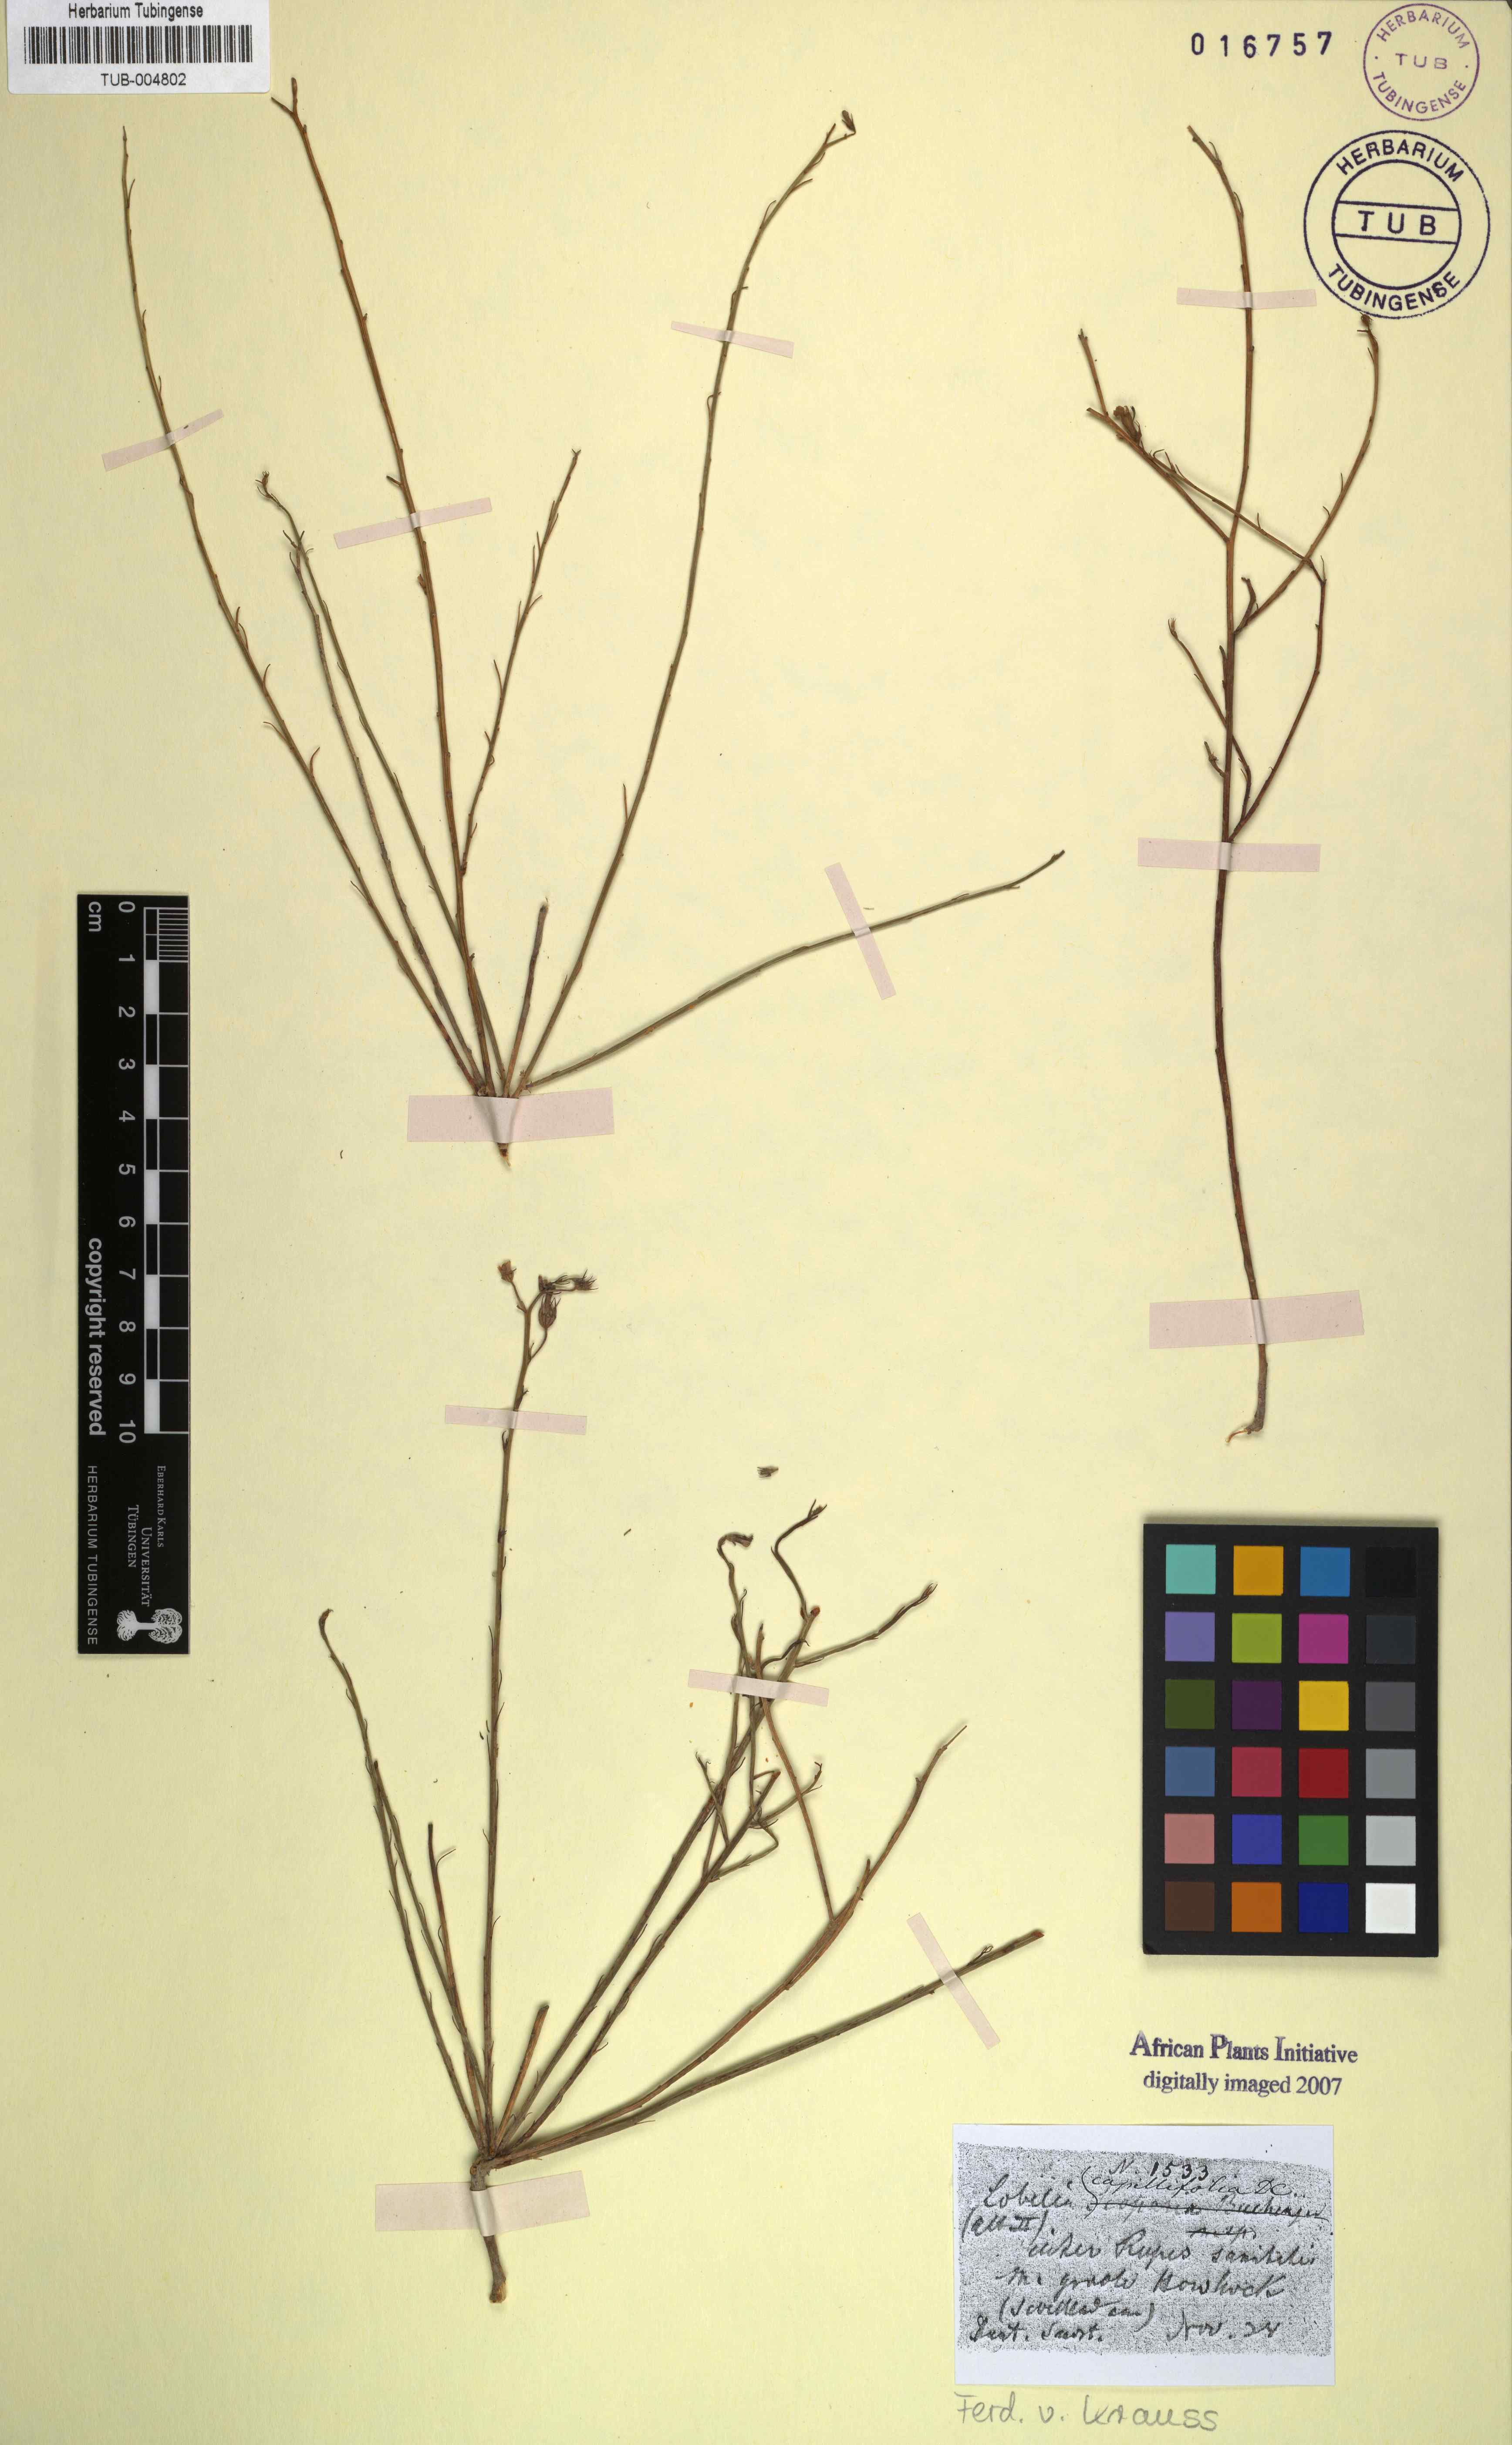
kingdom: Plantae
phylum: Tracheophyta
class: Magnoliopsida
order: Asterales
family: Campanulaceae
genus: Lobelia
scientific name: Lobelia capillifolia
